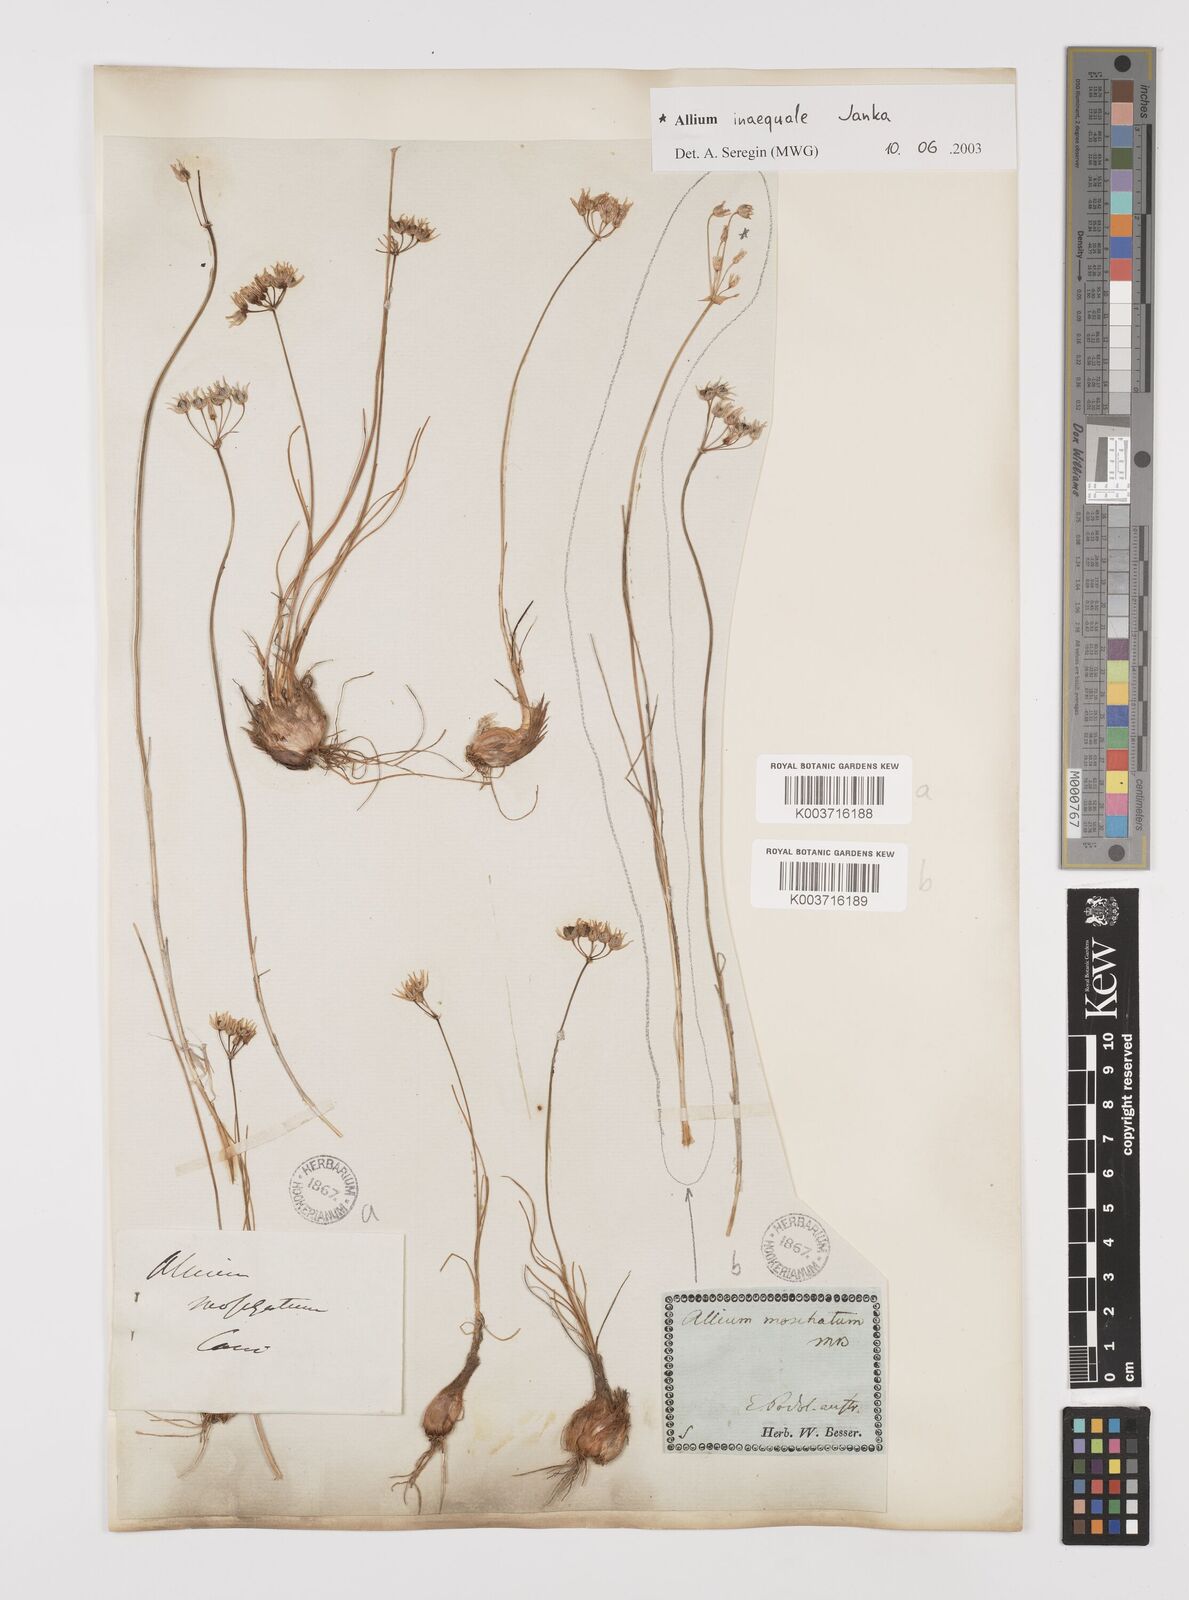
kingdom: Plantae
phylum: Tracheophyta
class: Liliopsida
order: Asparagales
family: Amaryllidaceae
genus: Allium
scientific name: Allium inaequale
